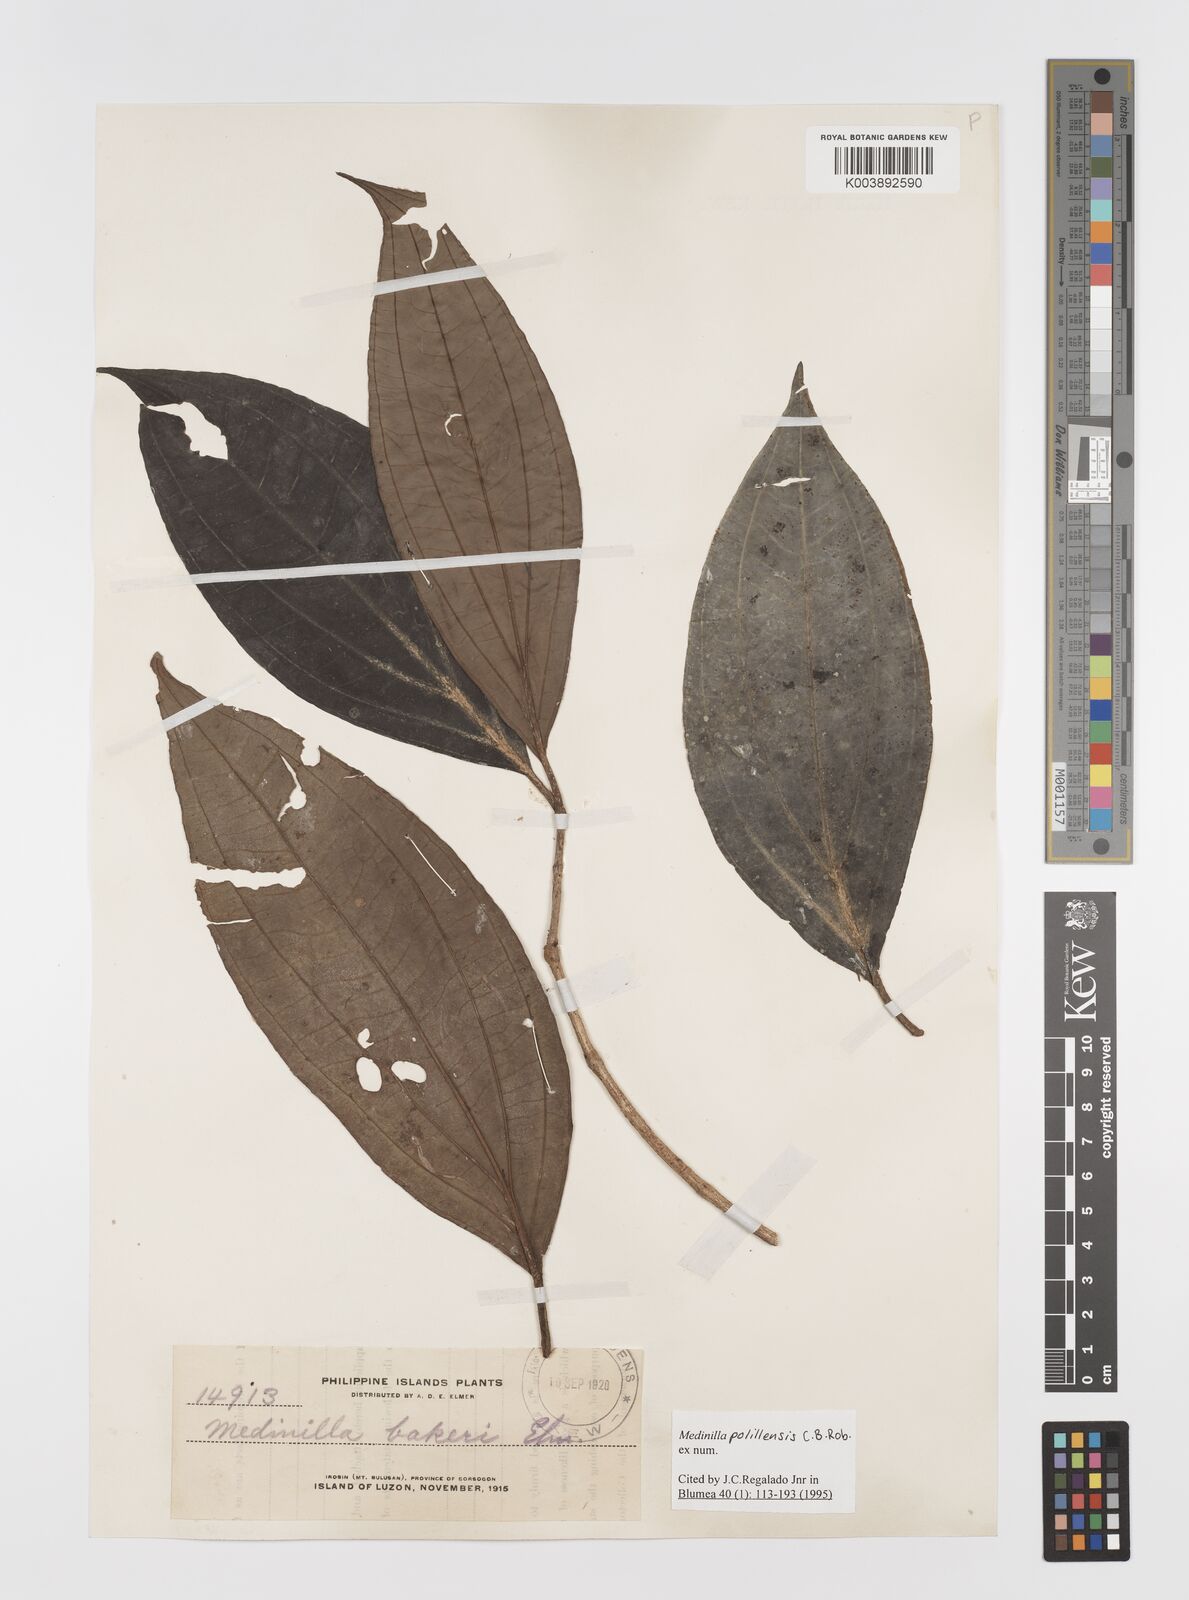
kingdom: Plantae
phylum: Tracheophyta
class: Magnoliopsida
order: Myrtales
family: Melastomataceae
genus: Medinilla
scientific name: Medinilla polillensis
